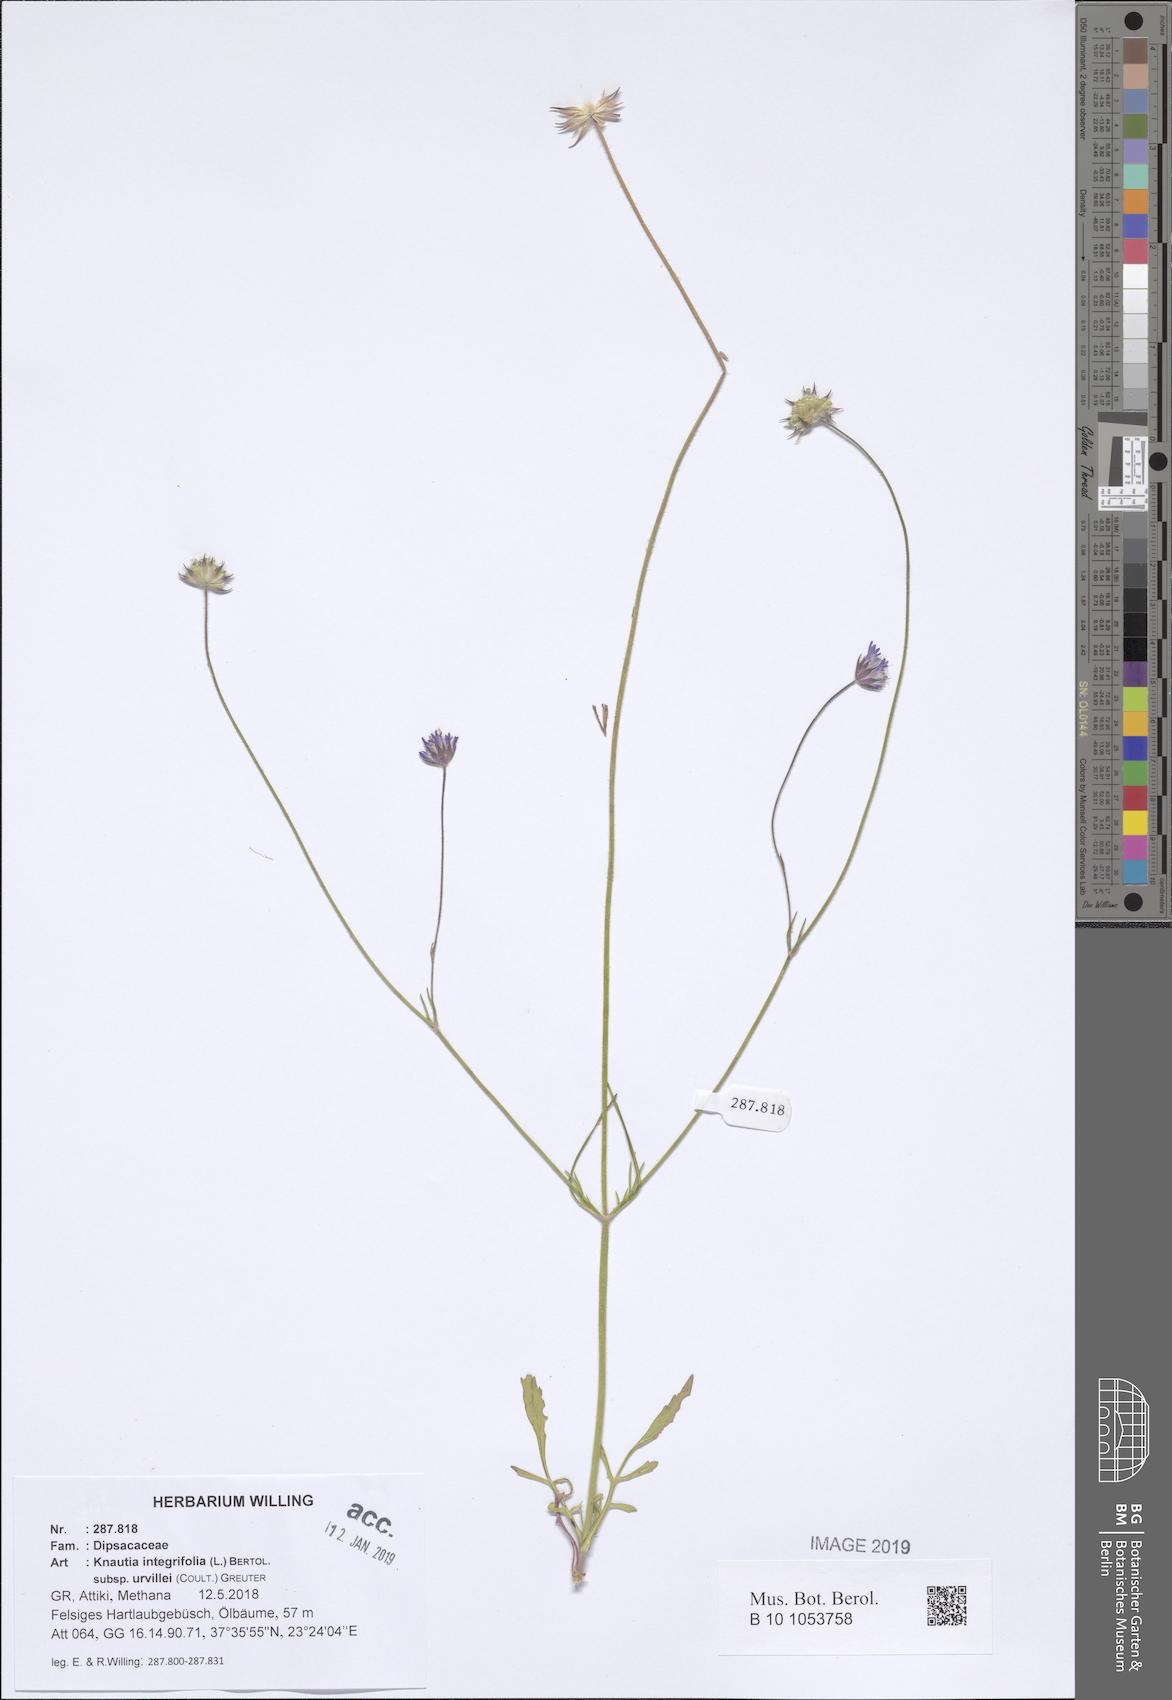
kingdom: Plantae
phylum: Tracheophyta
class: Magnoliopsida
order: Dipsacales
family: Caprifoliaceae
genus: Knautia
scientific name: Knautia integrifolia
